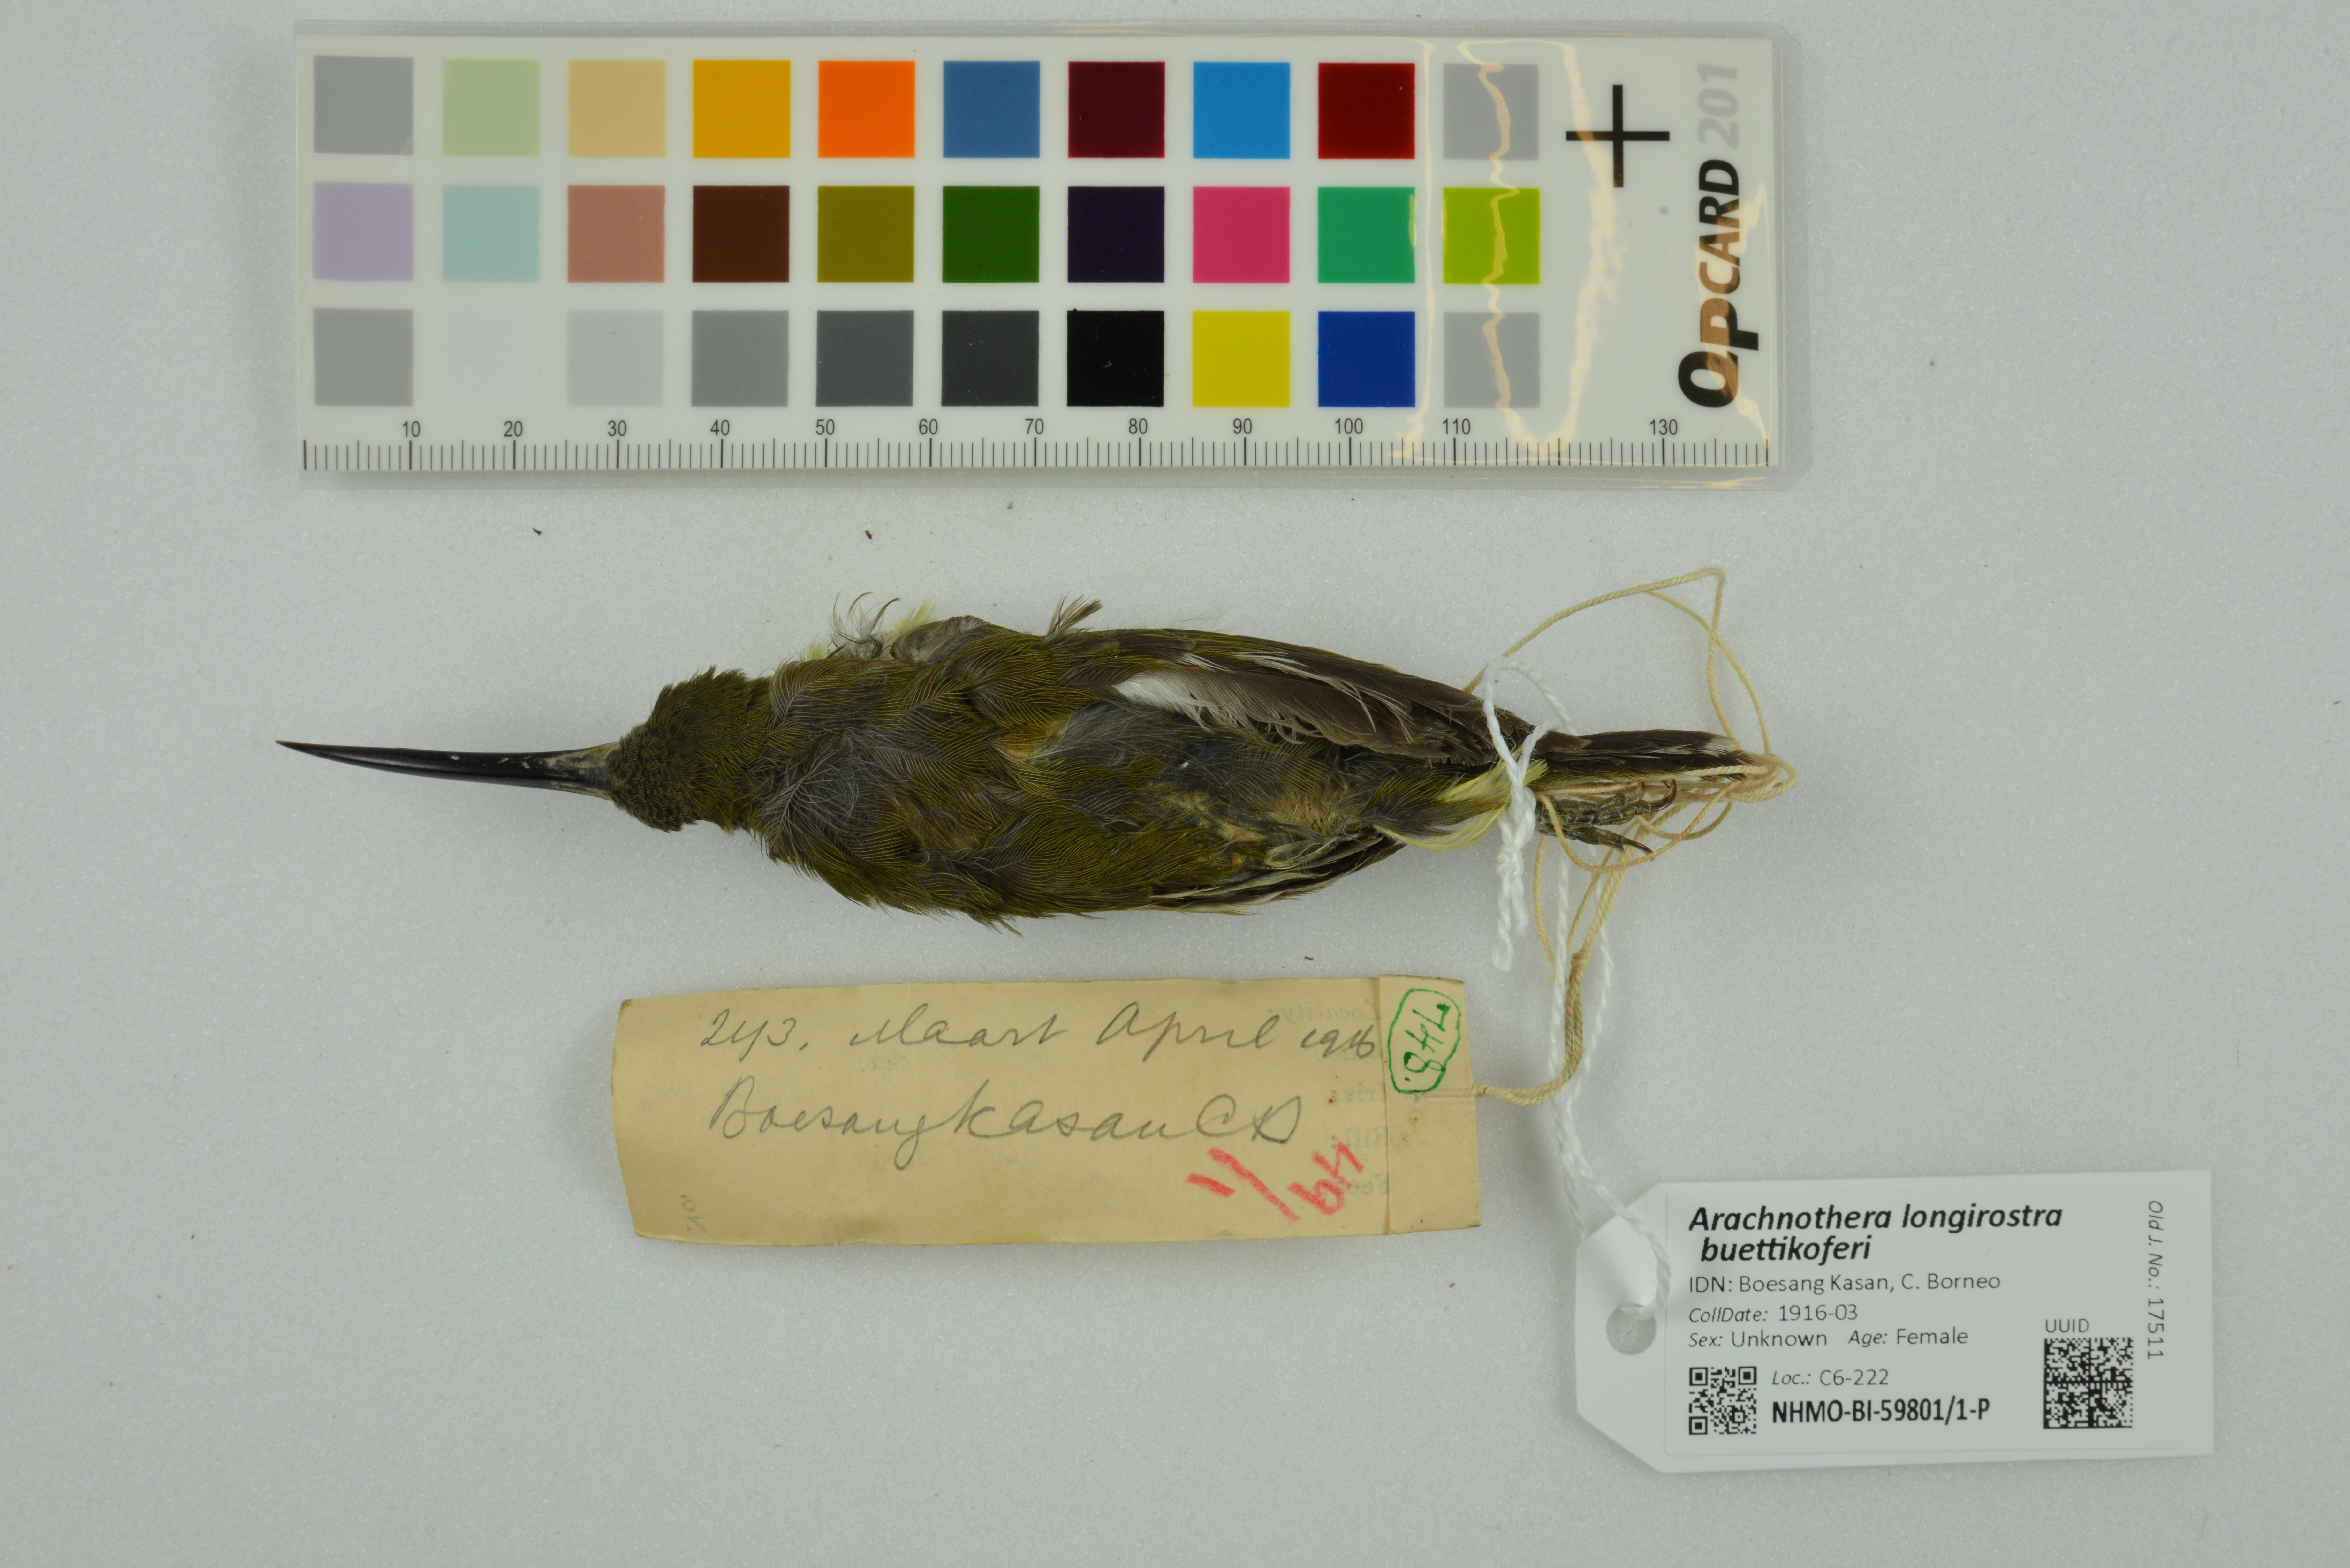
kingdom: Animalia
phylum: Chordata
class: Aves
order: Passeriformes
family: Nectariniidae
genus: Arachnothera
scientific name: Arachnothera longirostra
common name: Little spiderhunter
